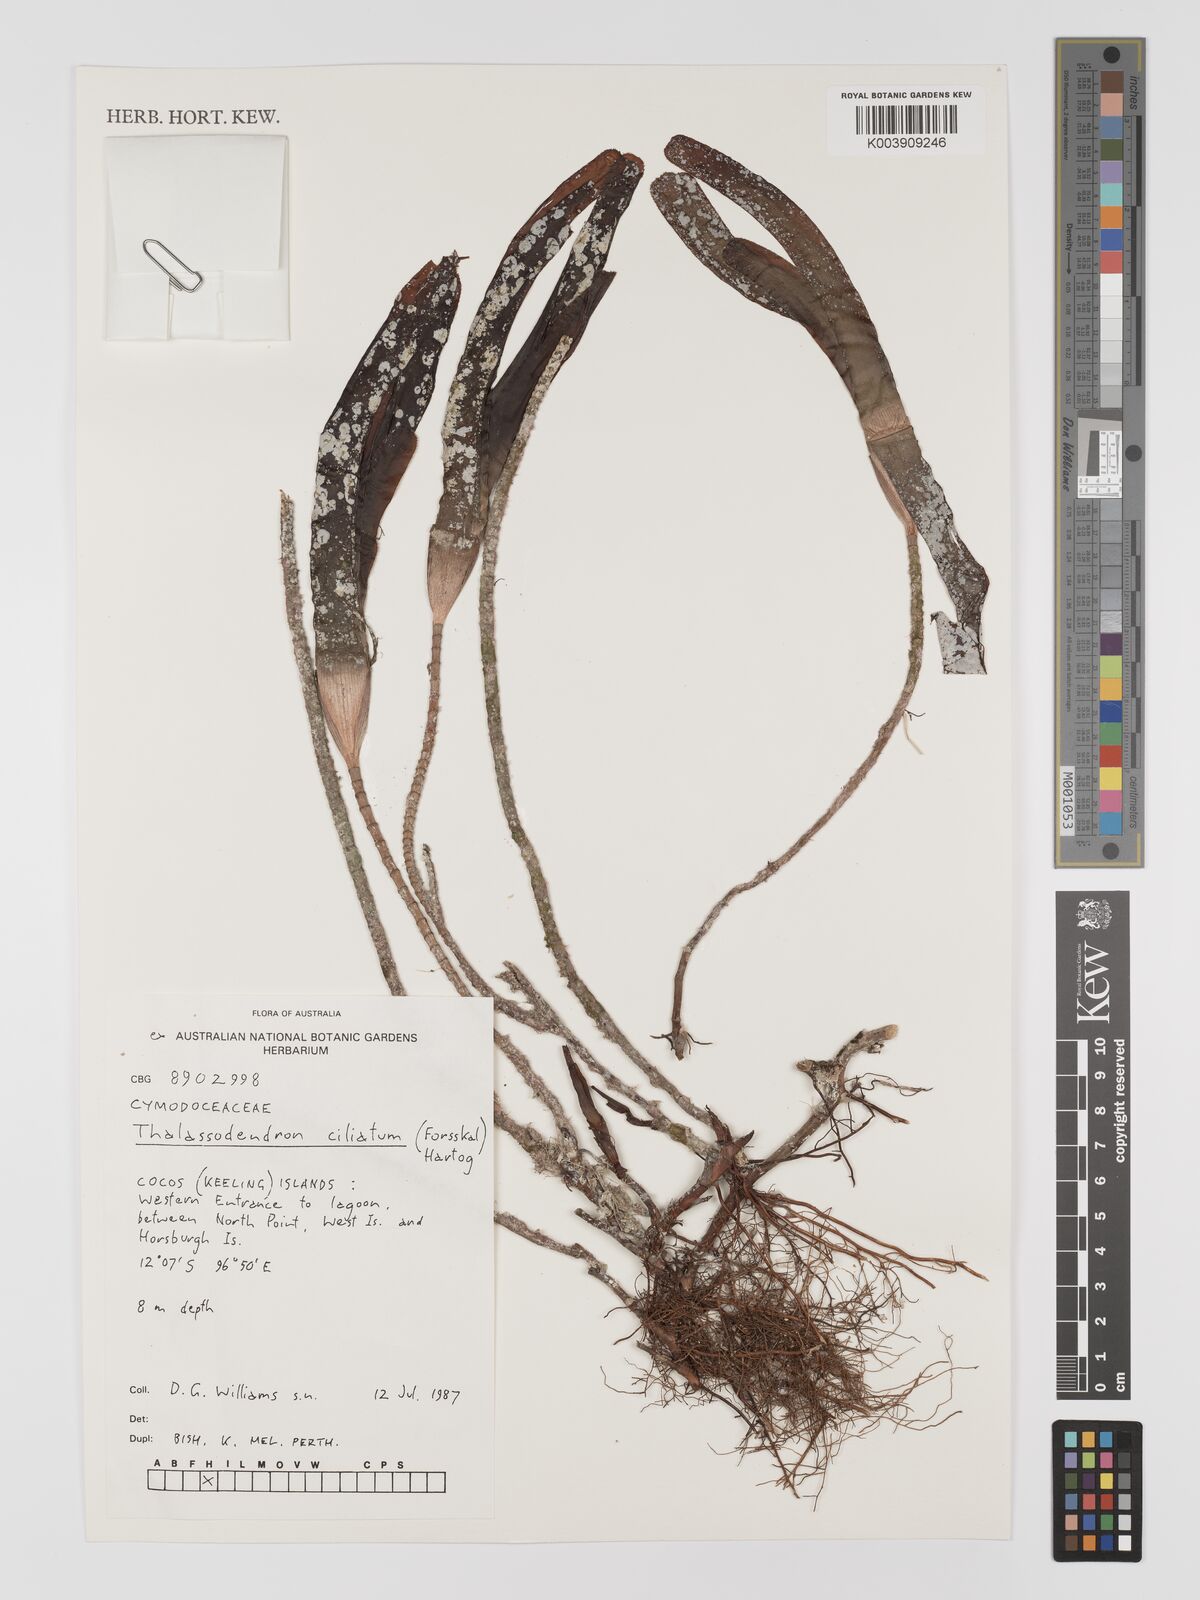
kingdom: Plantae
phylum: Tracheophyta
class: Liliopsida
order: Alismatales
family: Cymodoceaceae
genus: Thalassodendron
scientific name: Thalassodendron ciliatum
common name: Species code: tc
